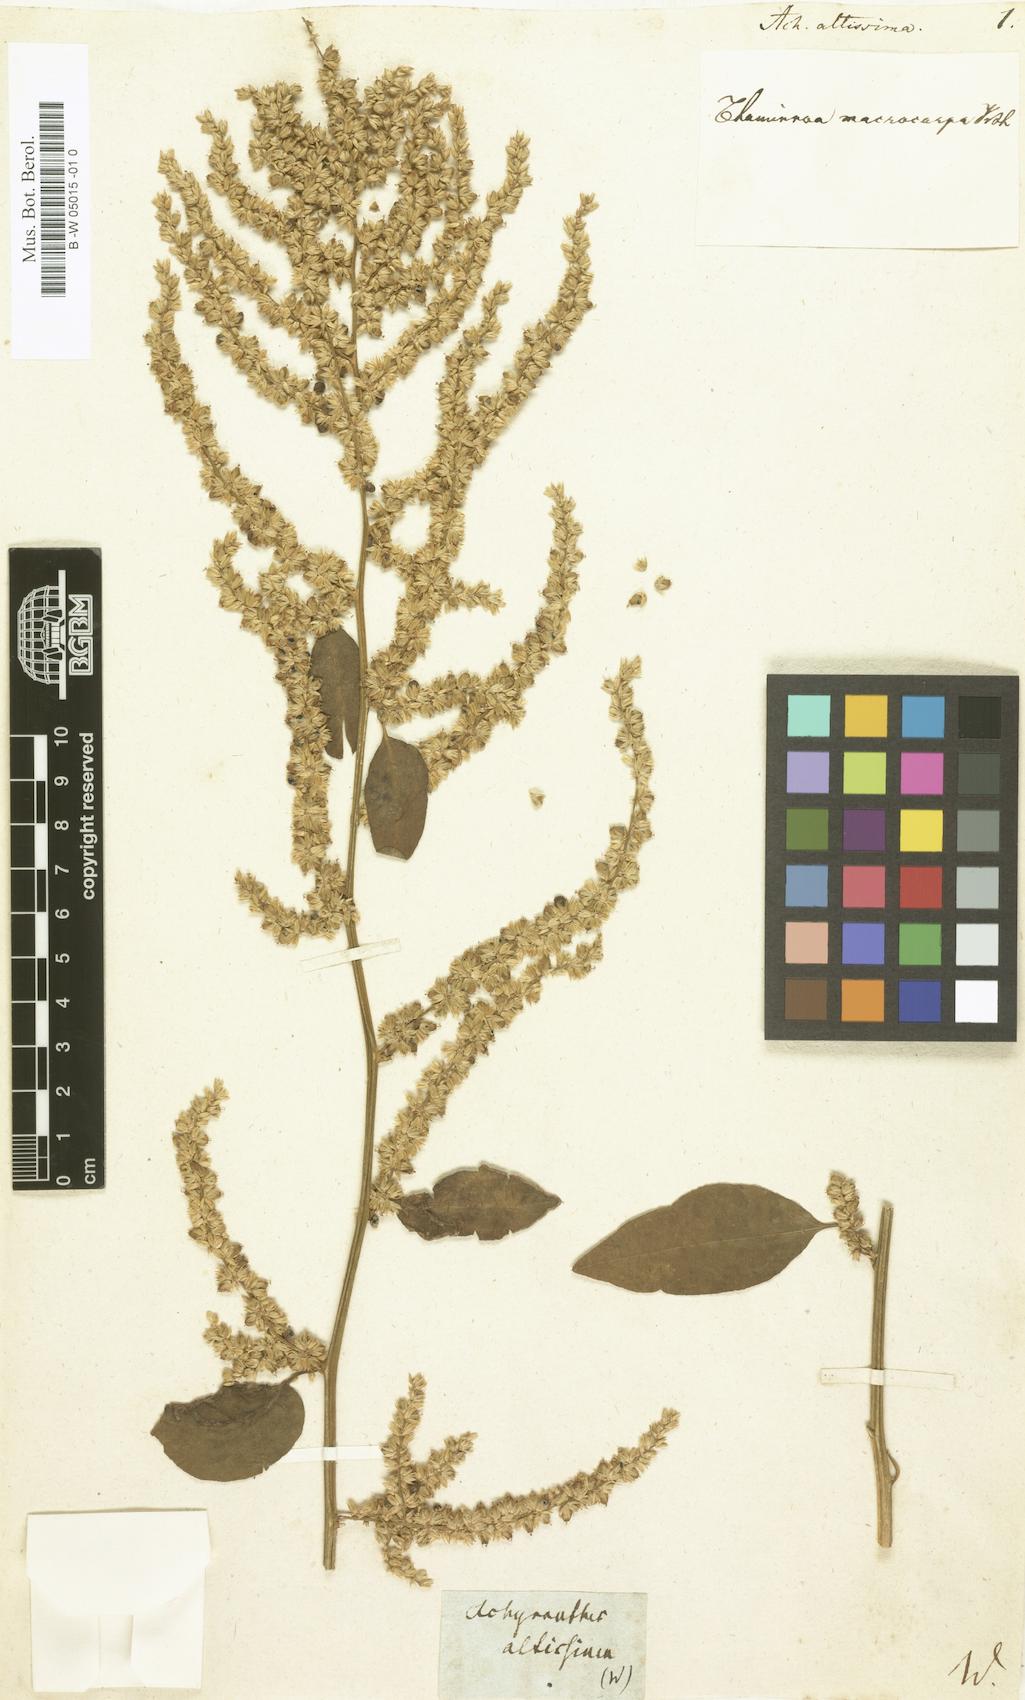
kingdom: Plantae
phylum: Tracheophyta
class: Magnoliopsida
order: Caryophyllales
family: Amaranthaceae
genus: Chamissoa
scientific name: Chamissoa altissima
